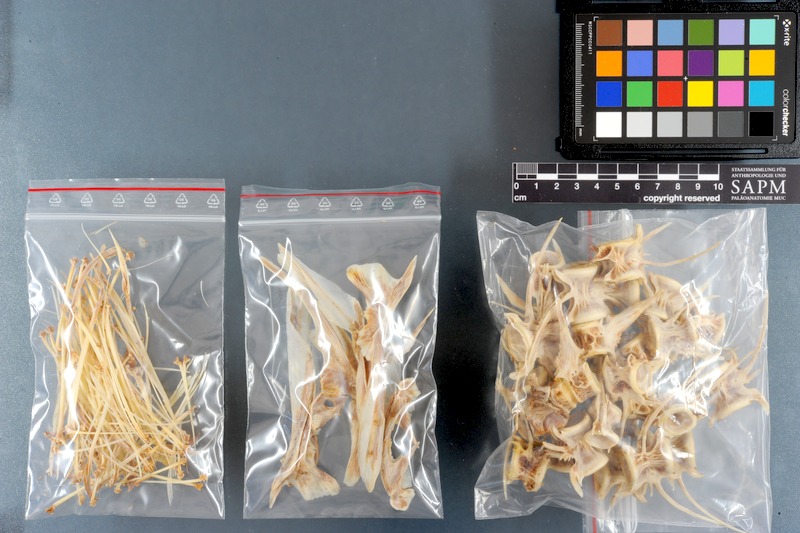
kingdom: Animalia
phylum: Chordata
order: Perciformes
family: Coryphaenidae
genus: Coryphaena
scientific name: Coryphaena hippurus
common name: Dolphin
